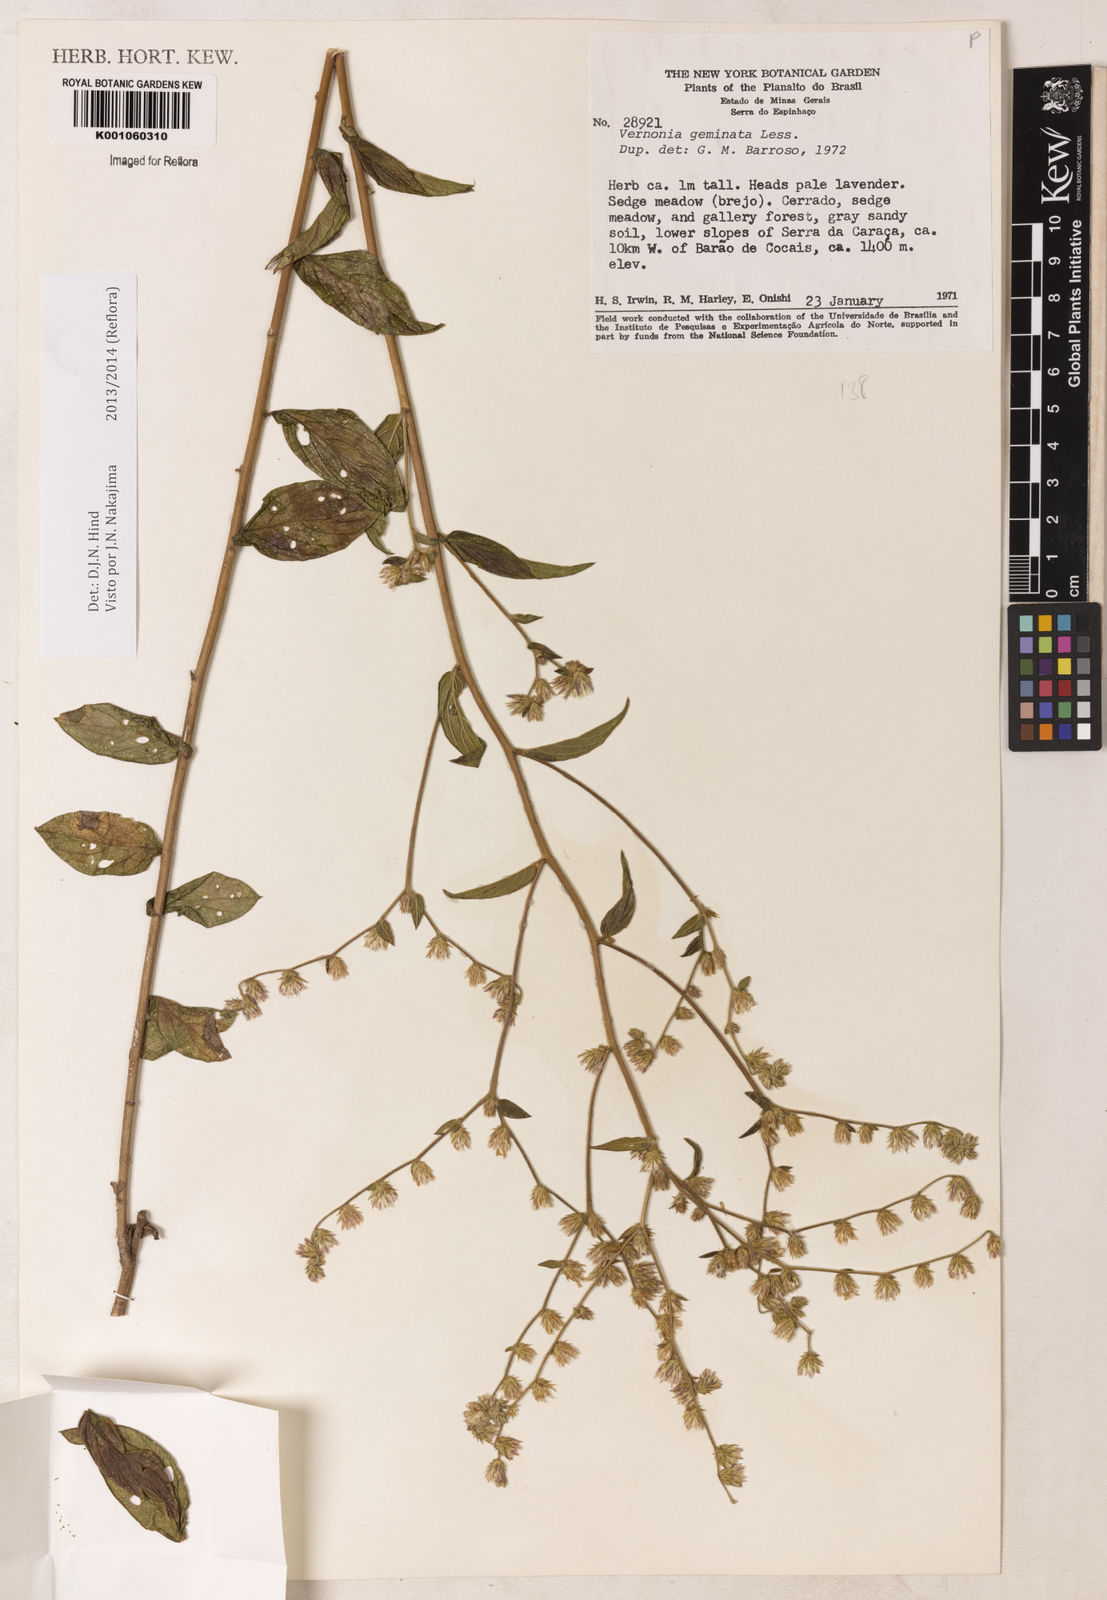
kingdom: Plantae
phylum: Tracheophyta
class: Magnoliopsida
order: Asterales
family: Asteraceae
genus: Lepidaploa
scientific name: Lepidaploa canescens
